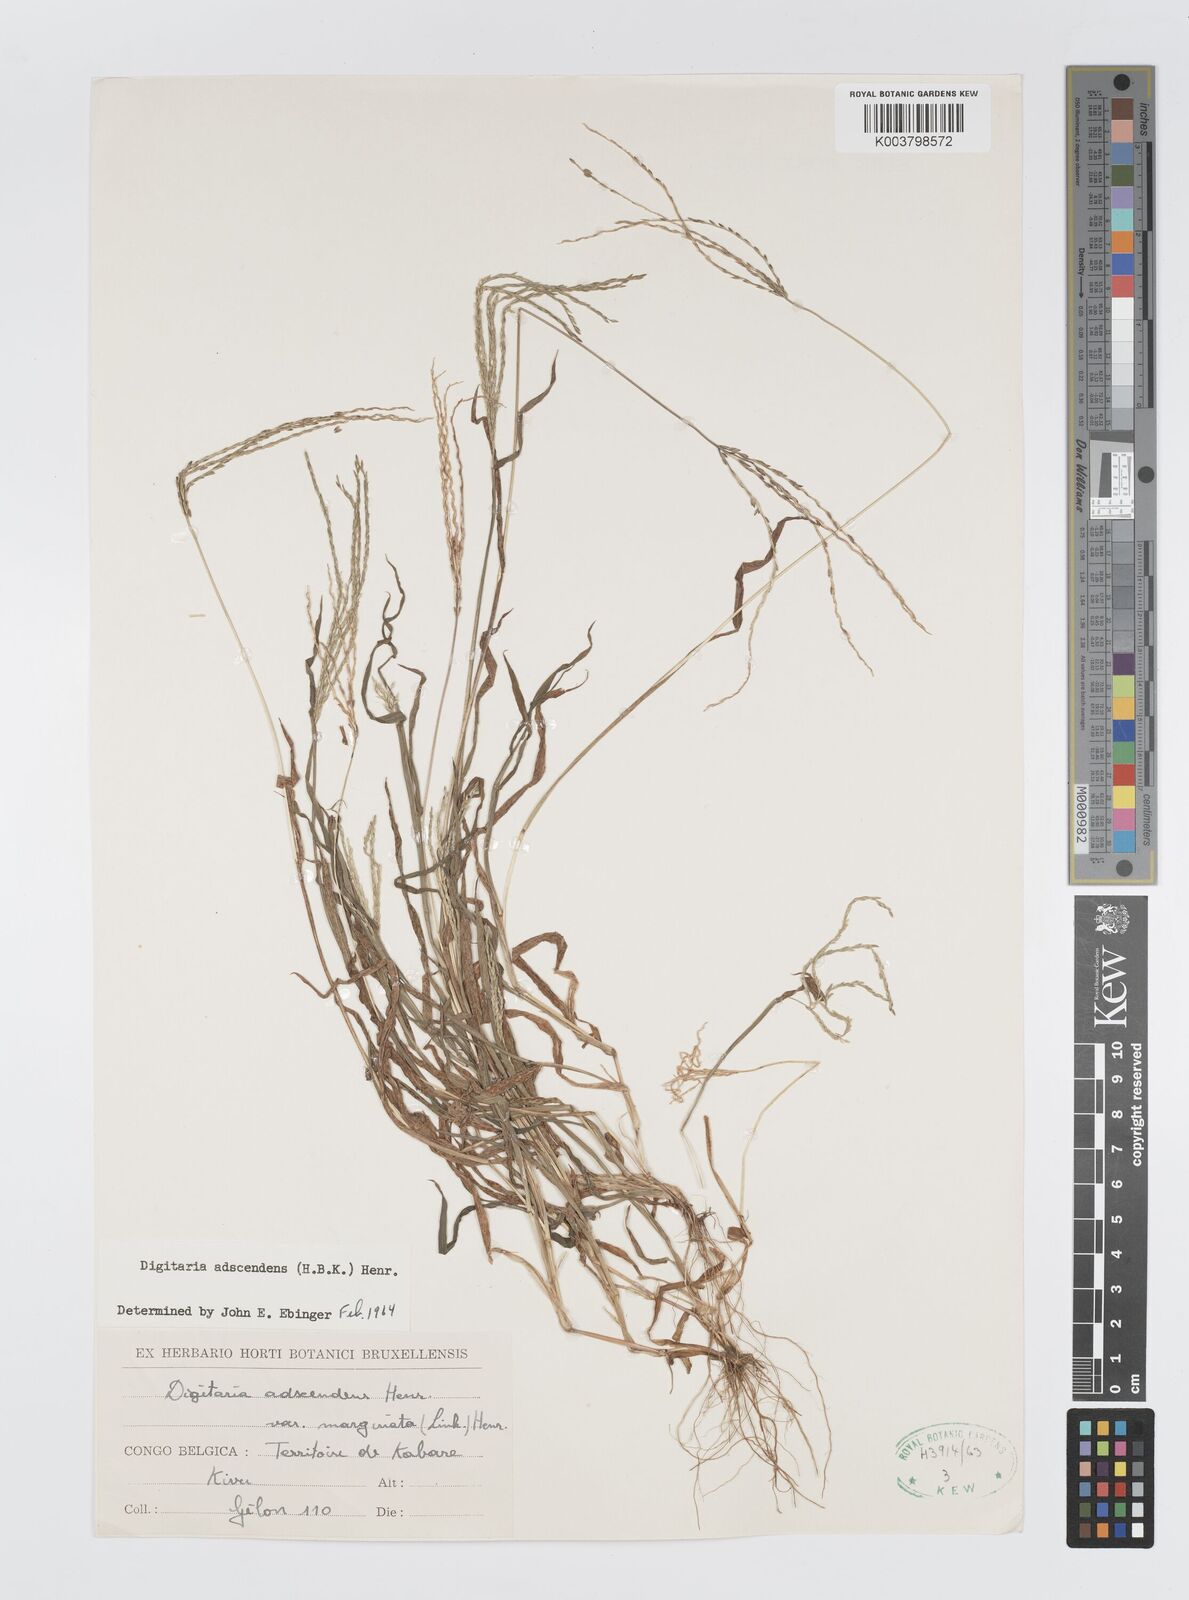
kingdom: Plantae
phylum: Tracheophyta
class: Liliopsida
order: Poales
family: Poaceae
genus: Digitaria
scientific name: Digitaria nuda
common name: Naked crabgrass
